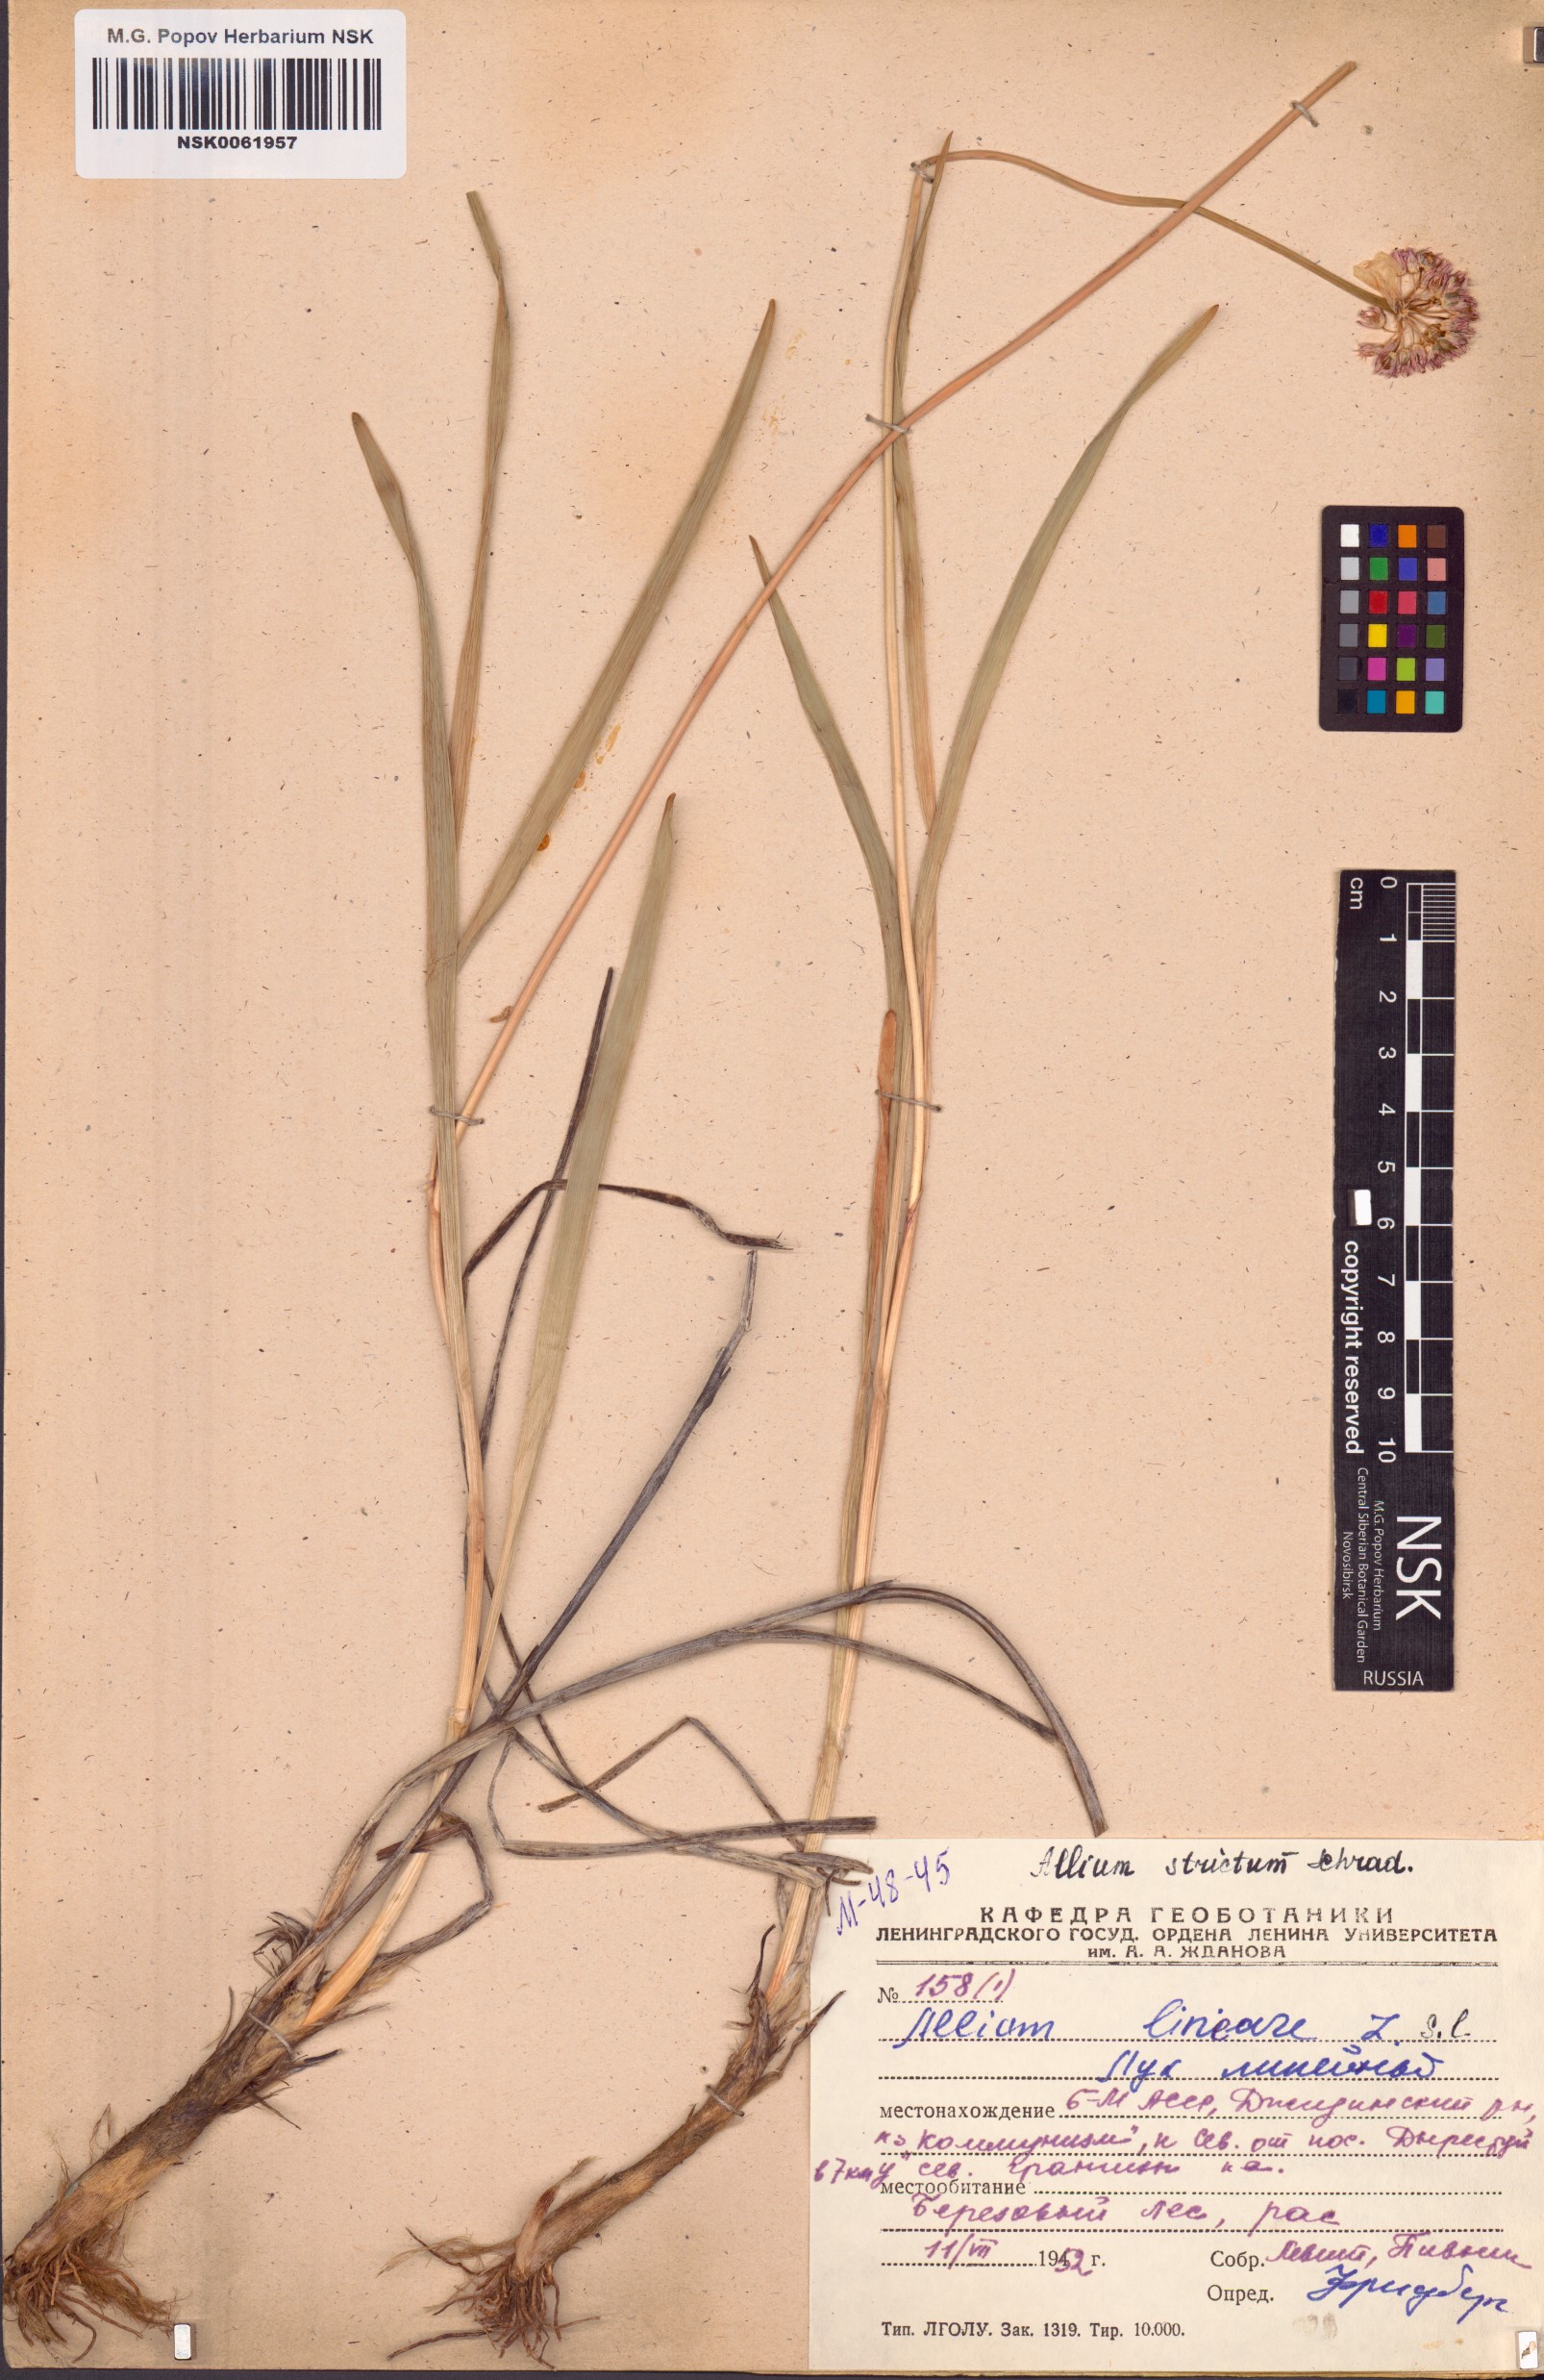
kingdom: Plantae
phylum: Tracheophyta
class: Liliopsida
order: Asparagales
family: Amaryllidaceae
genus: Allium
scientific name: Allium strictum
